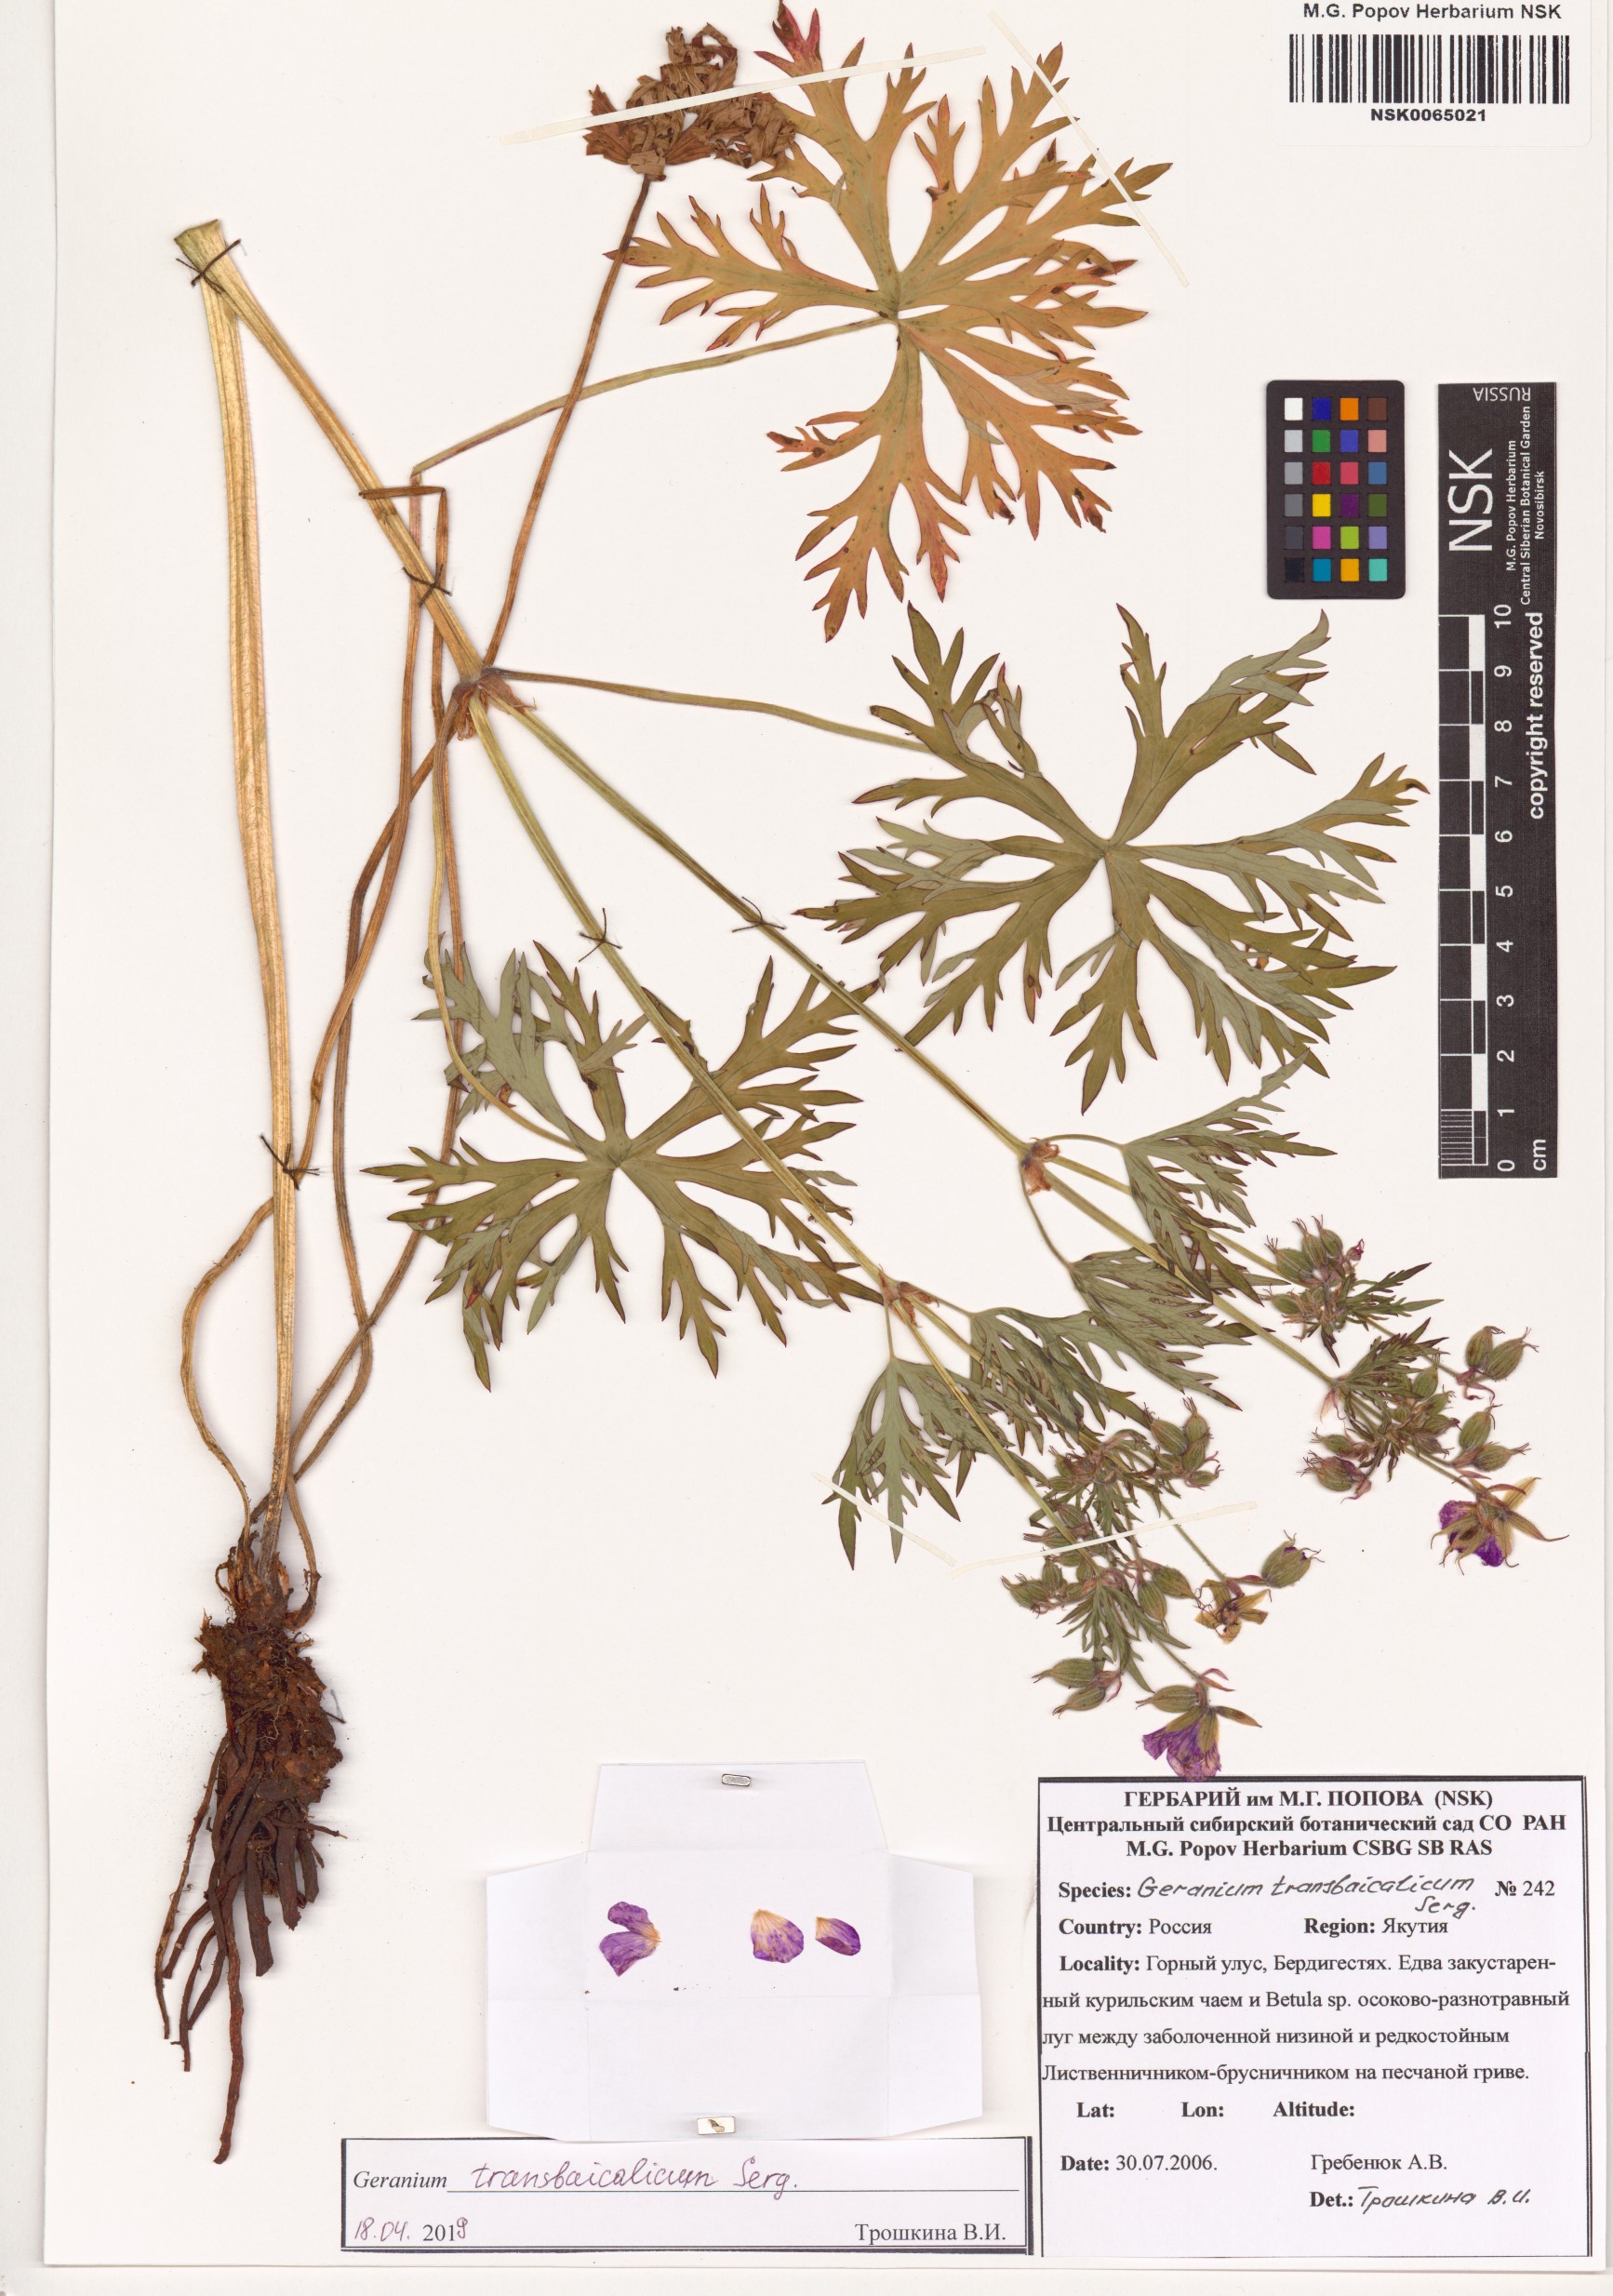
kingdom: Plantae
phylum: Tracheophyta
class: Magnoliopsida
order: Geraniales
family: Geraniaceae
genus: Geranium
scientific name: Geranium pratense
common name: Meadow crane's-bill
